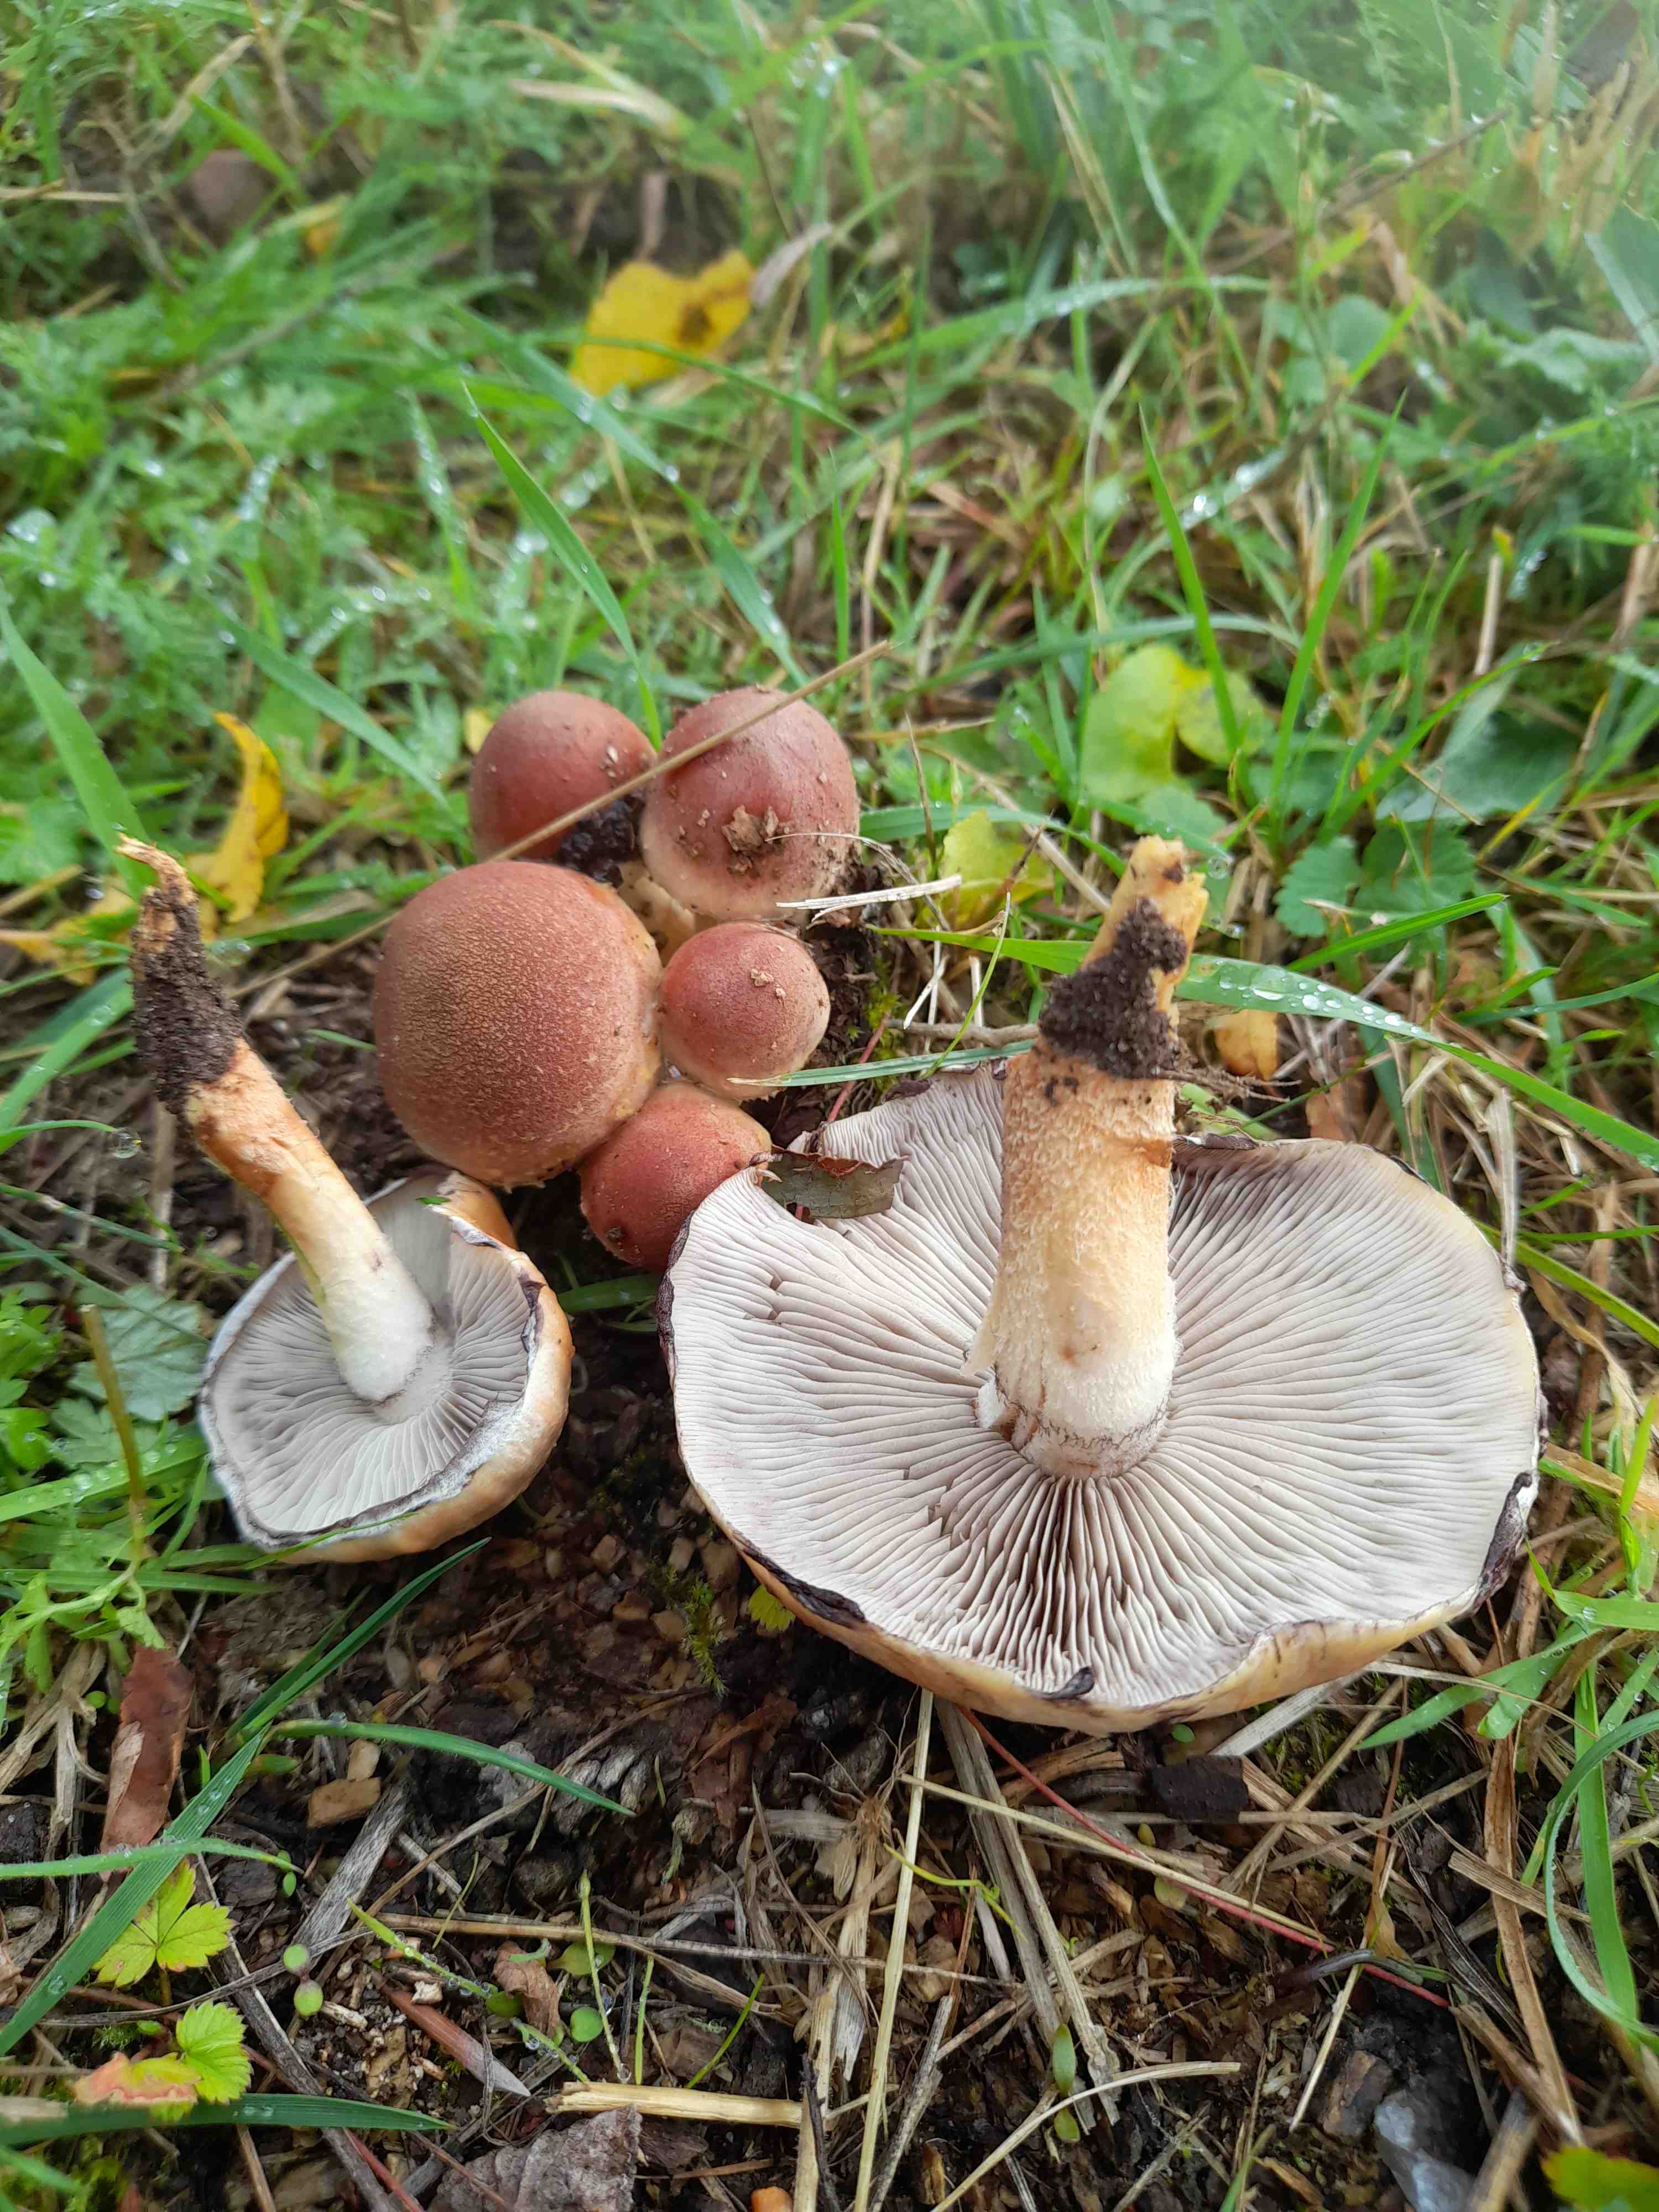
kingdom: Fungi
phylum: Basidiomycota
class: Agaricomycetes
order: Agaricales
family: Strophariaceae
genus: Hypholoma
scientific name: Hypholoma lateritium
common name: teglrød svovlhat
